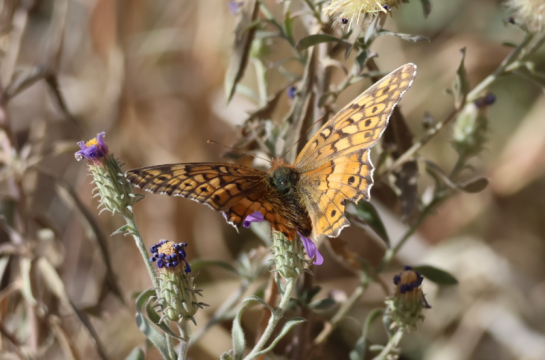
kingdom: Animalia
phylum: Arthropoda
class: Insecta
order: Lepidoptera
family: Nymphalidae
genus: Euptoieta
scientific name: Euptoieta claudia
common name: Variegated Fritillary
